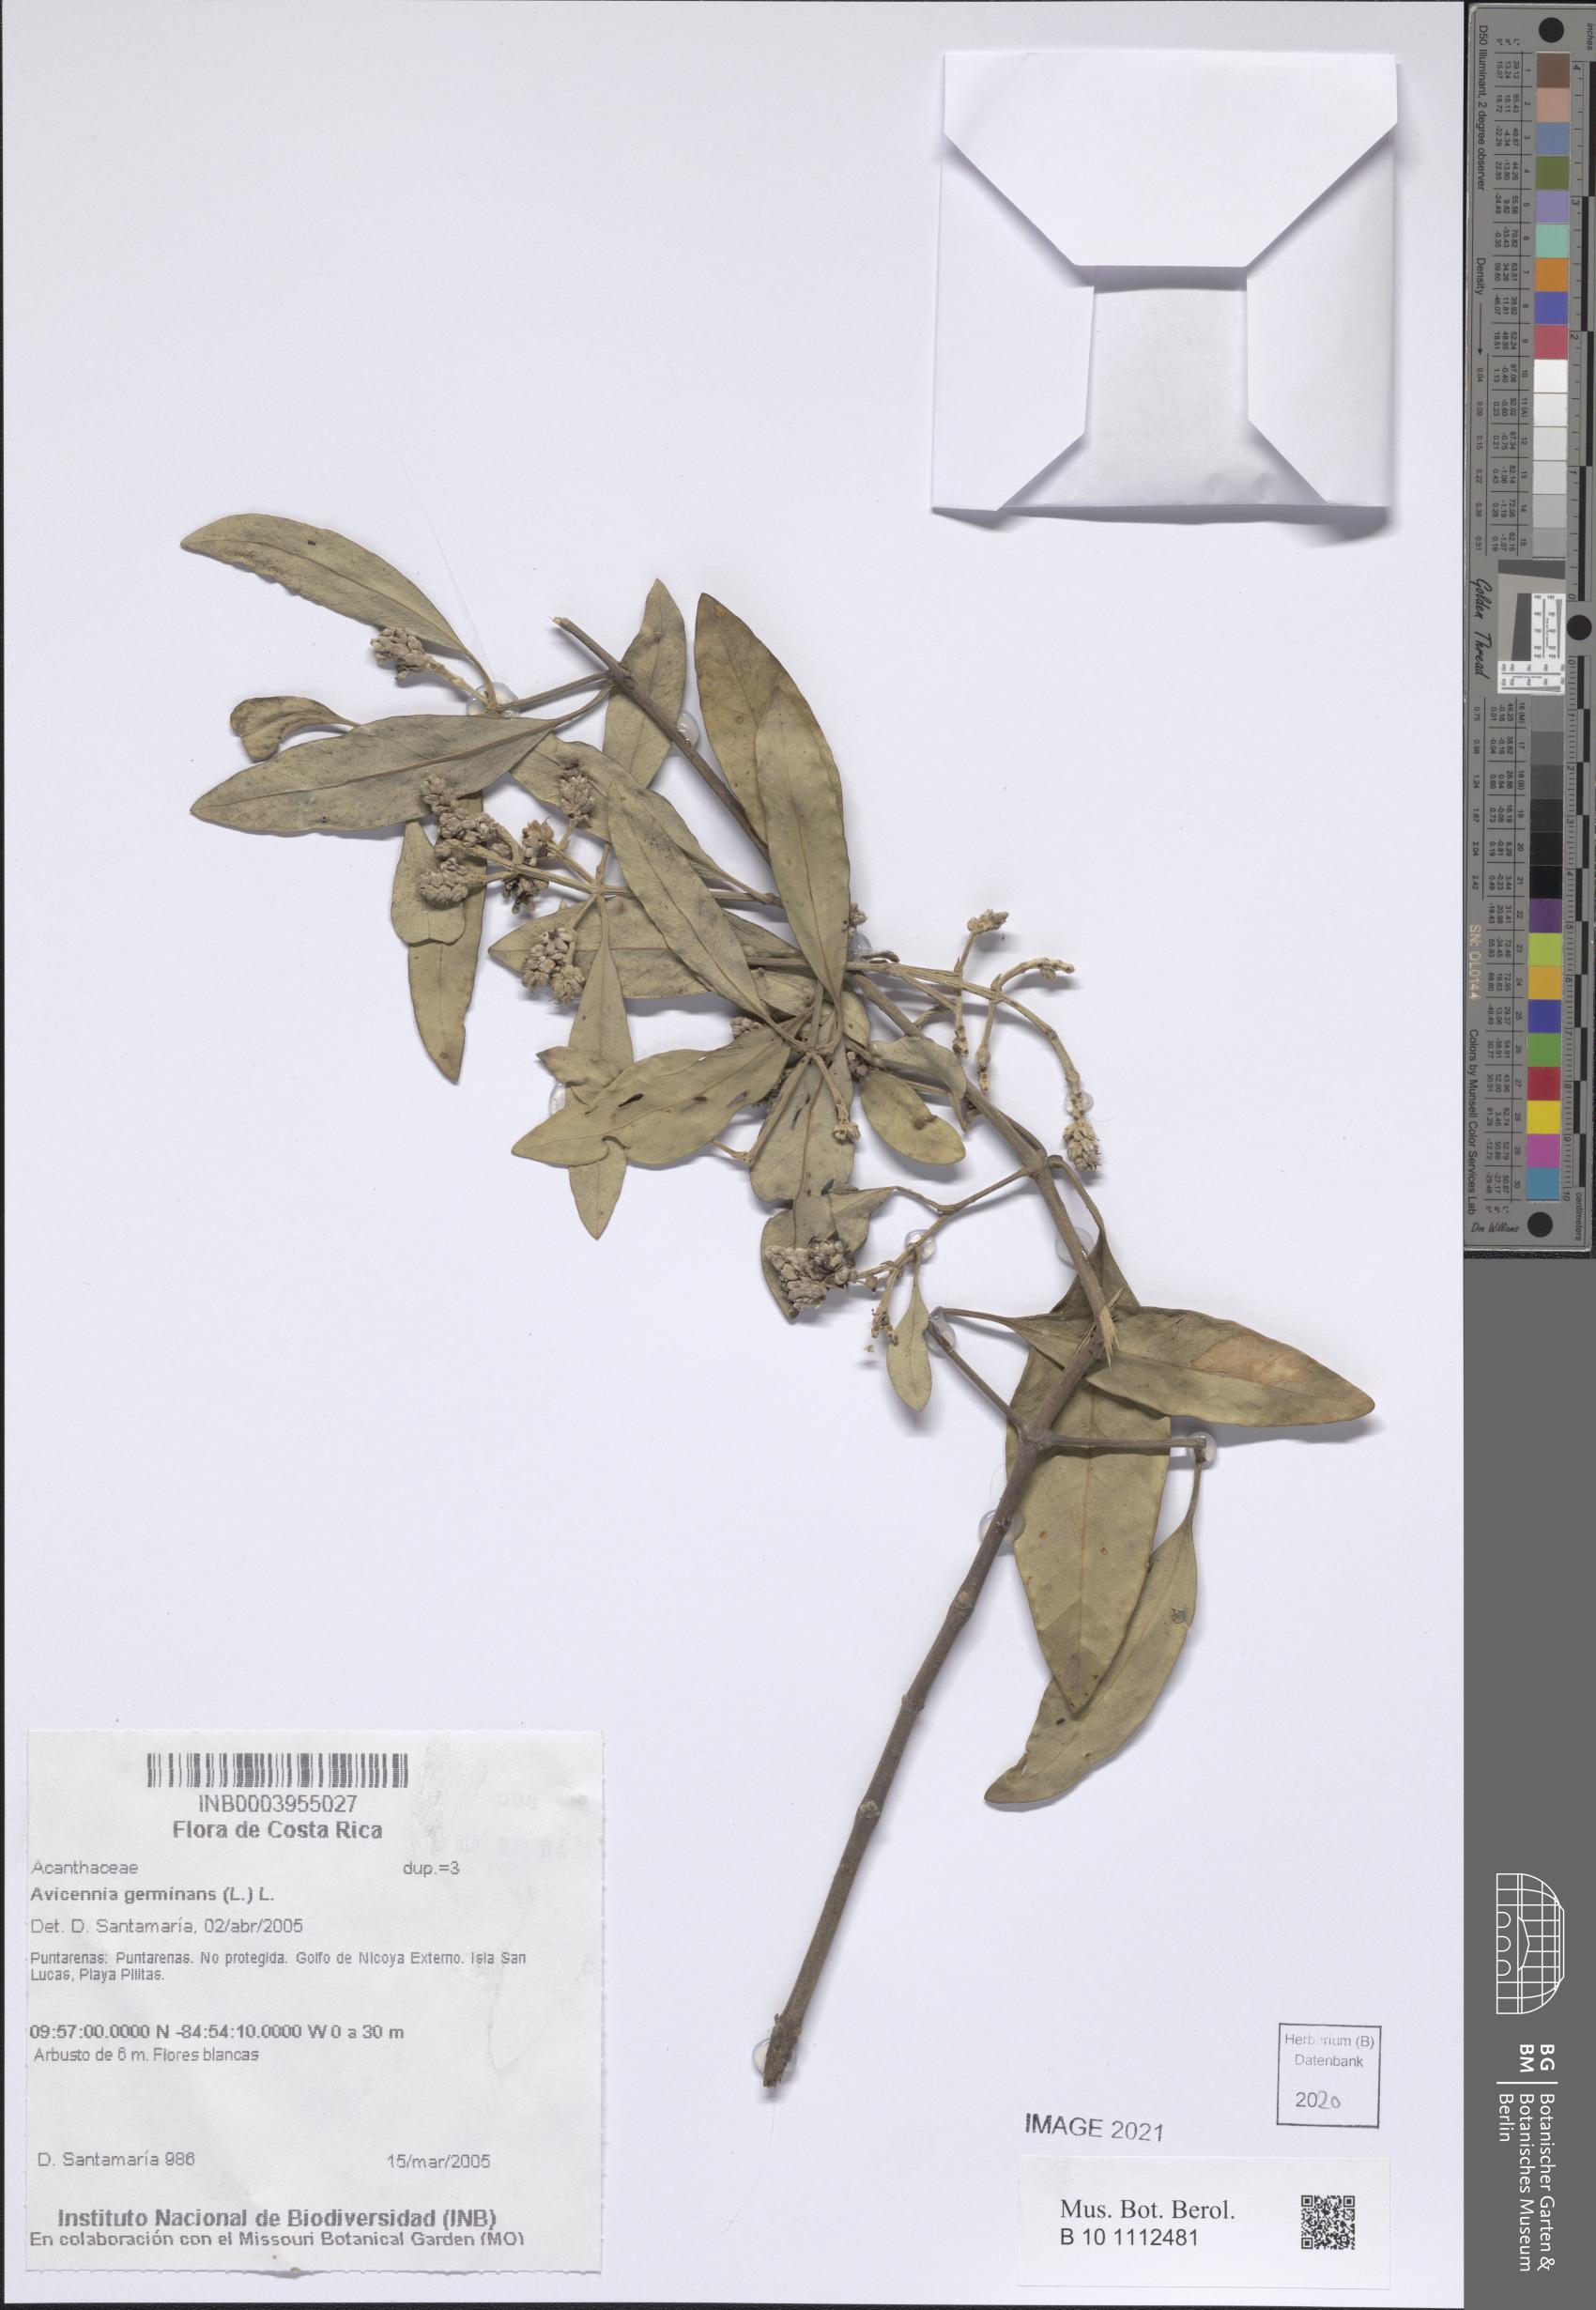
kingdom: Plantae
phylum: Tracheophyta
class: Magnoliopsida
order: Lamiales
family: Acanthaceae
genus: Avicennia
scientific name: Avicennia germinans
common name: Black mangrove
